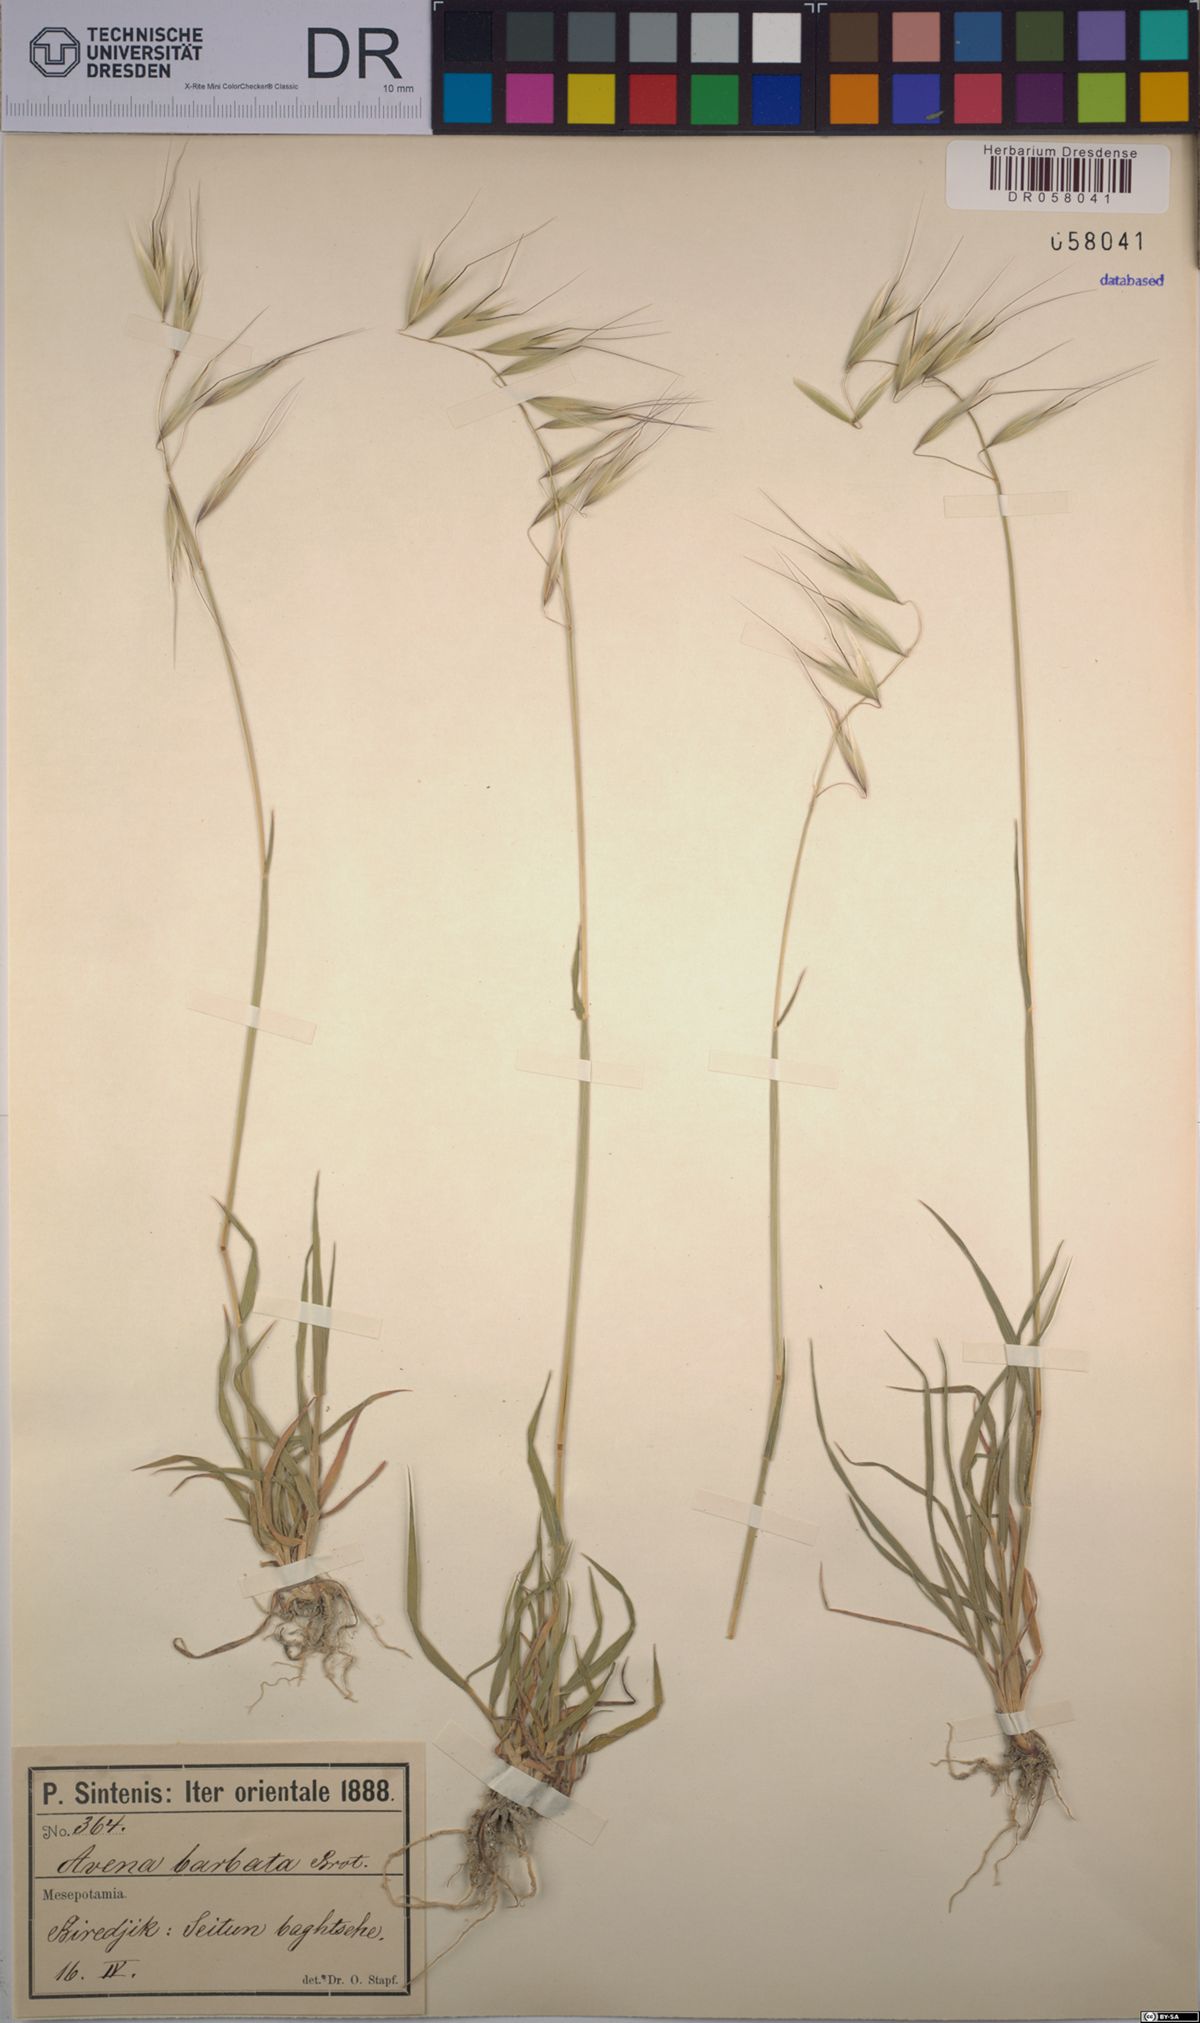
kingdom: Plantae
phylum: Tracheophyta
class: Liliopsida
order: Poales
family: Poaceae
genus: Avena
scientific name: Avena barbata
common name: Slender oat
